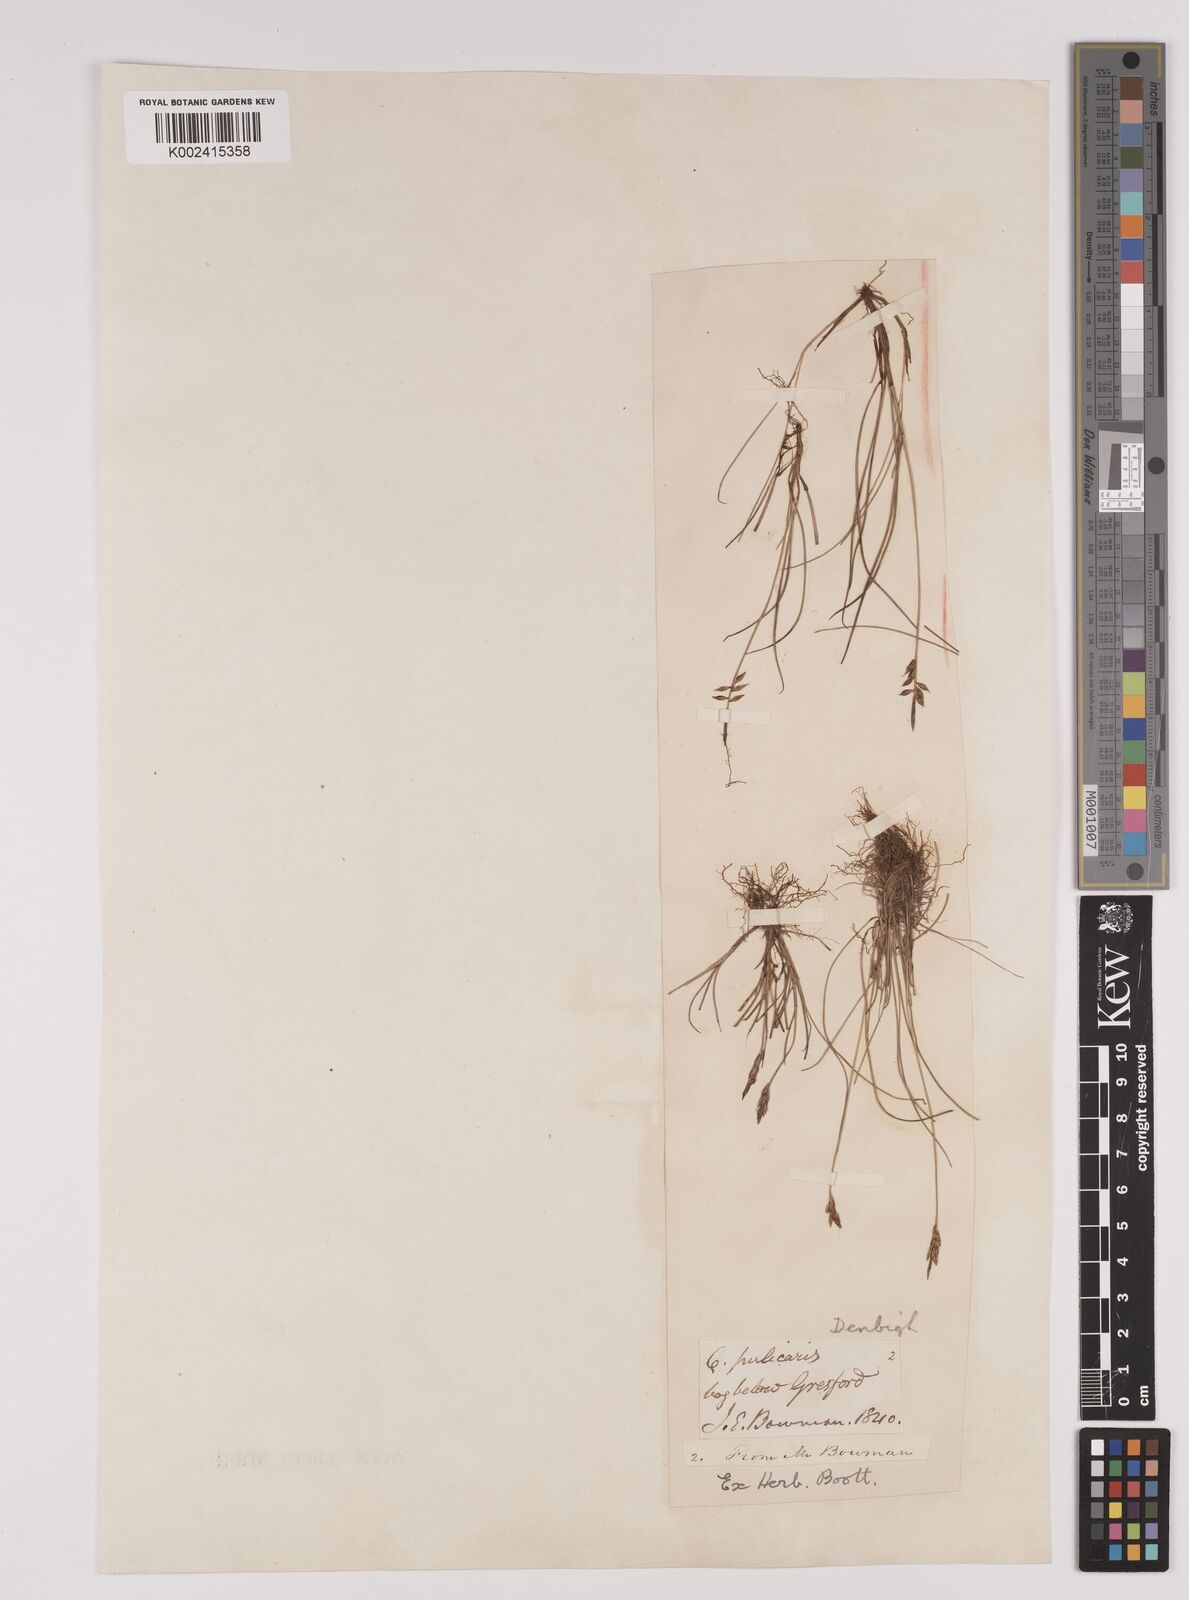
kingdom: Plantae
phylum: Tracheophyta
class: Liliopsida
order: Poales
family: Cyperaceae
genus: Carex
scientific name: Carex pulicaris
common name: Flea sedge
